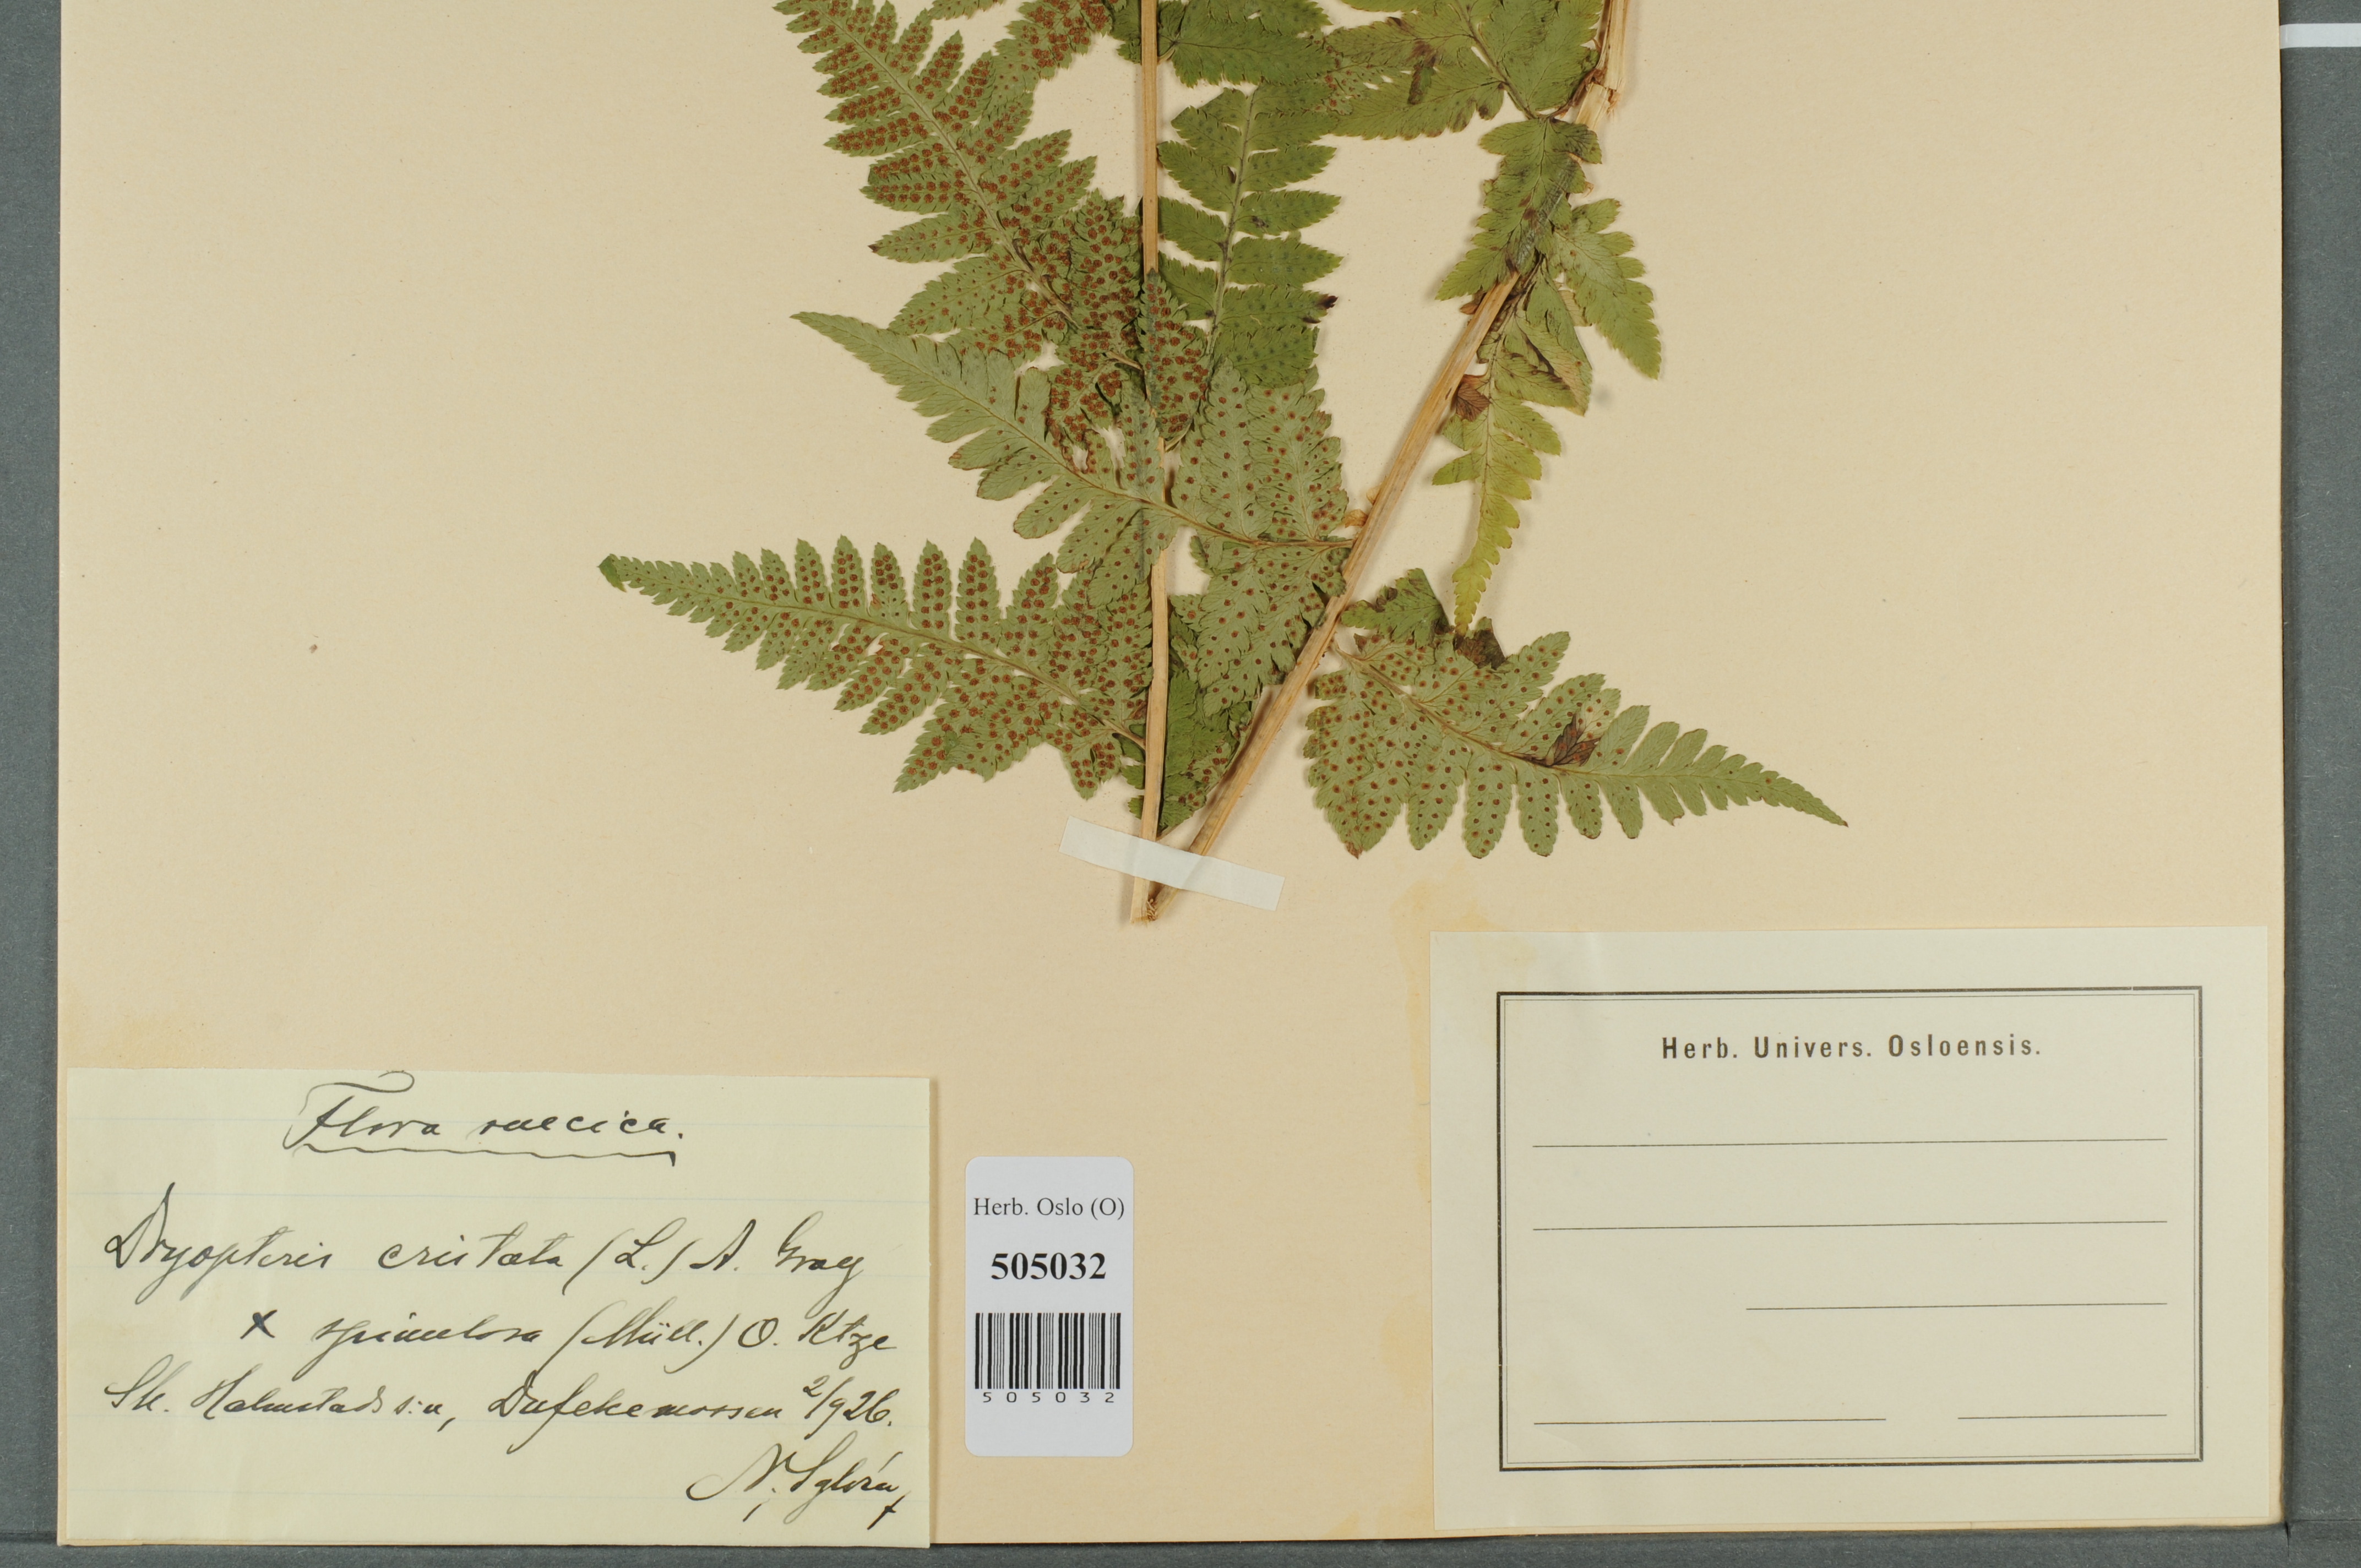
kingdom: Plantae
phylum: Tracheophyta
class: Polypodiopsida
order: Polypodiales
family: Dryopteridaceae
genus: Dryopteris
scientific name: Dryopteris
